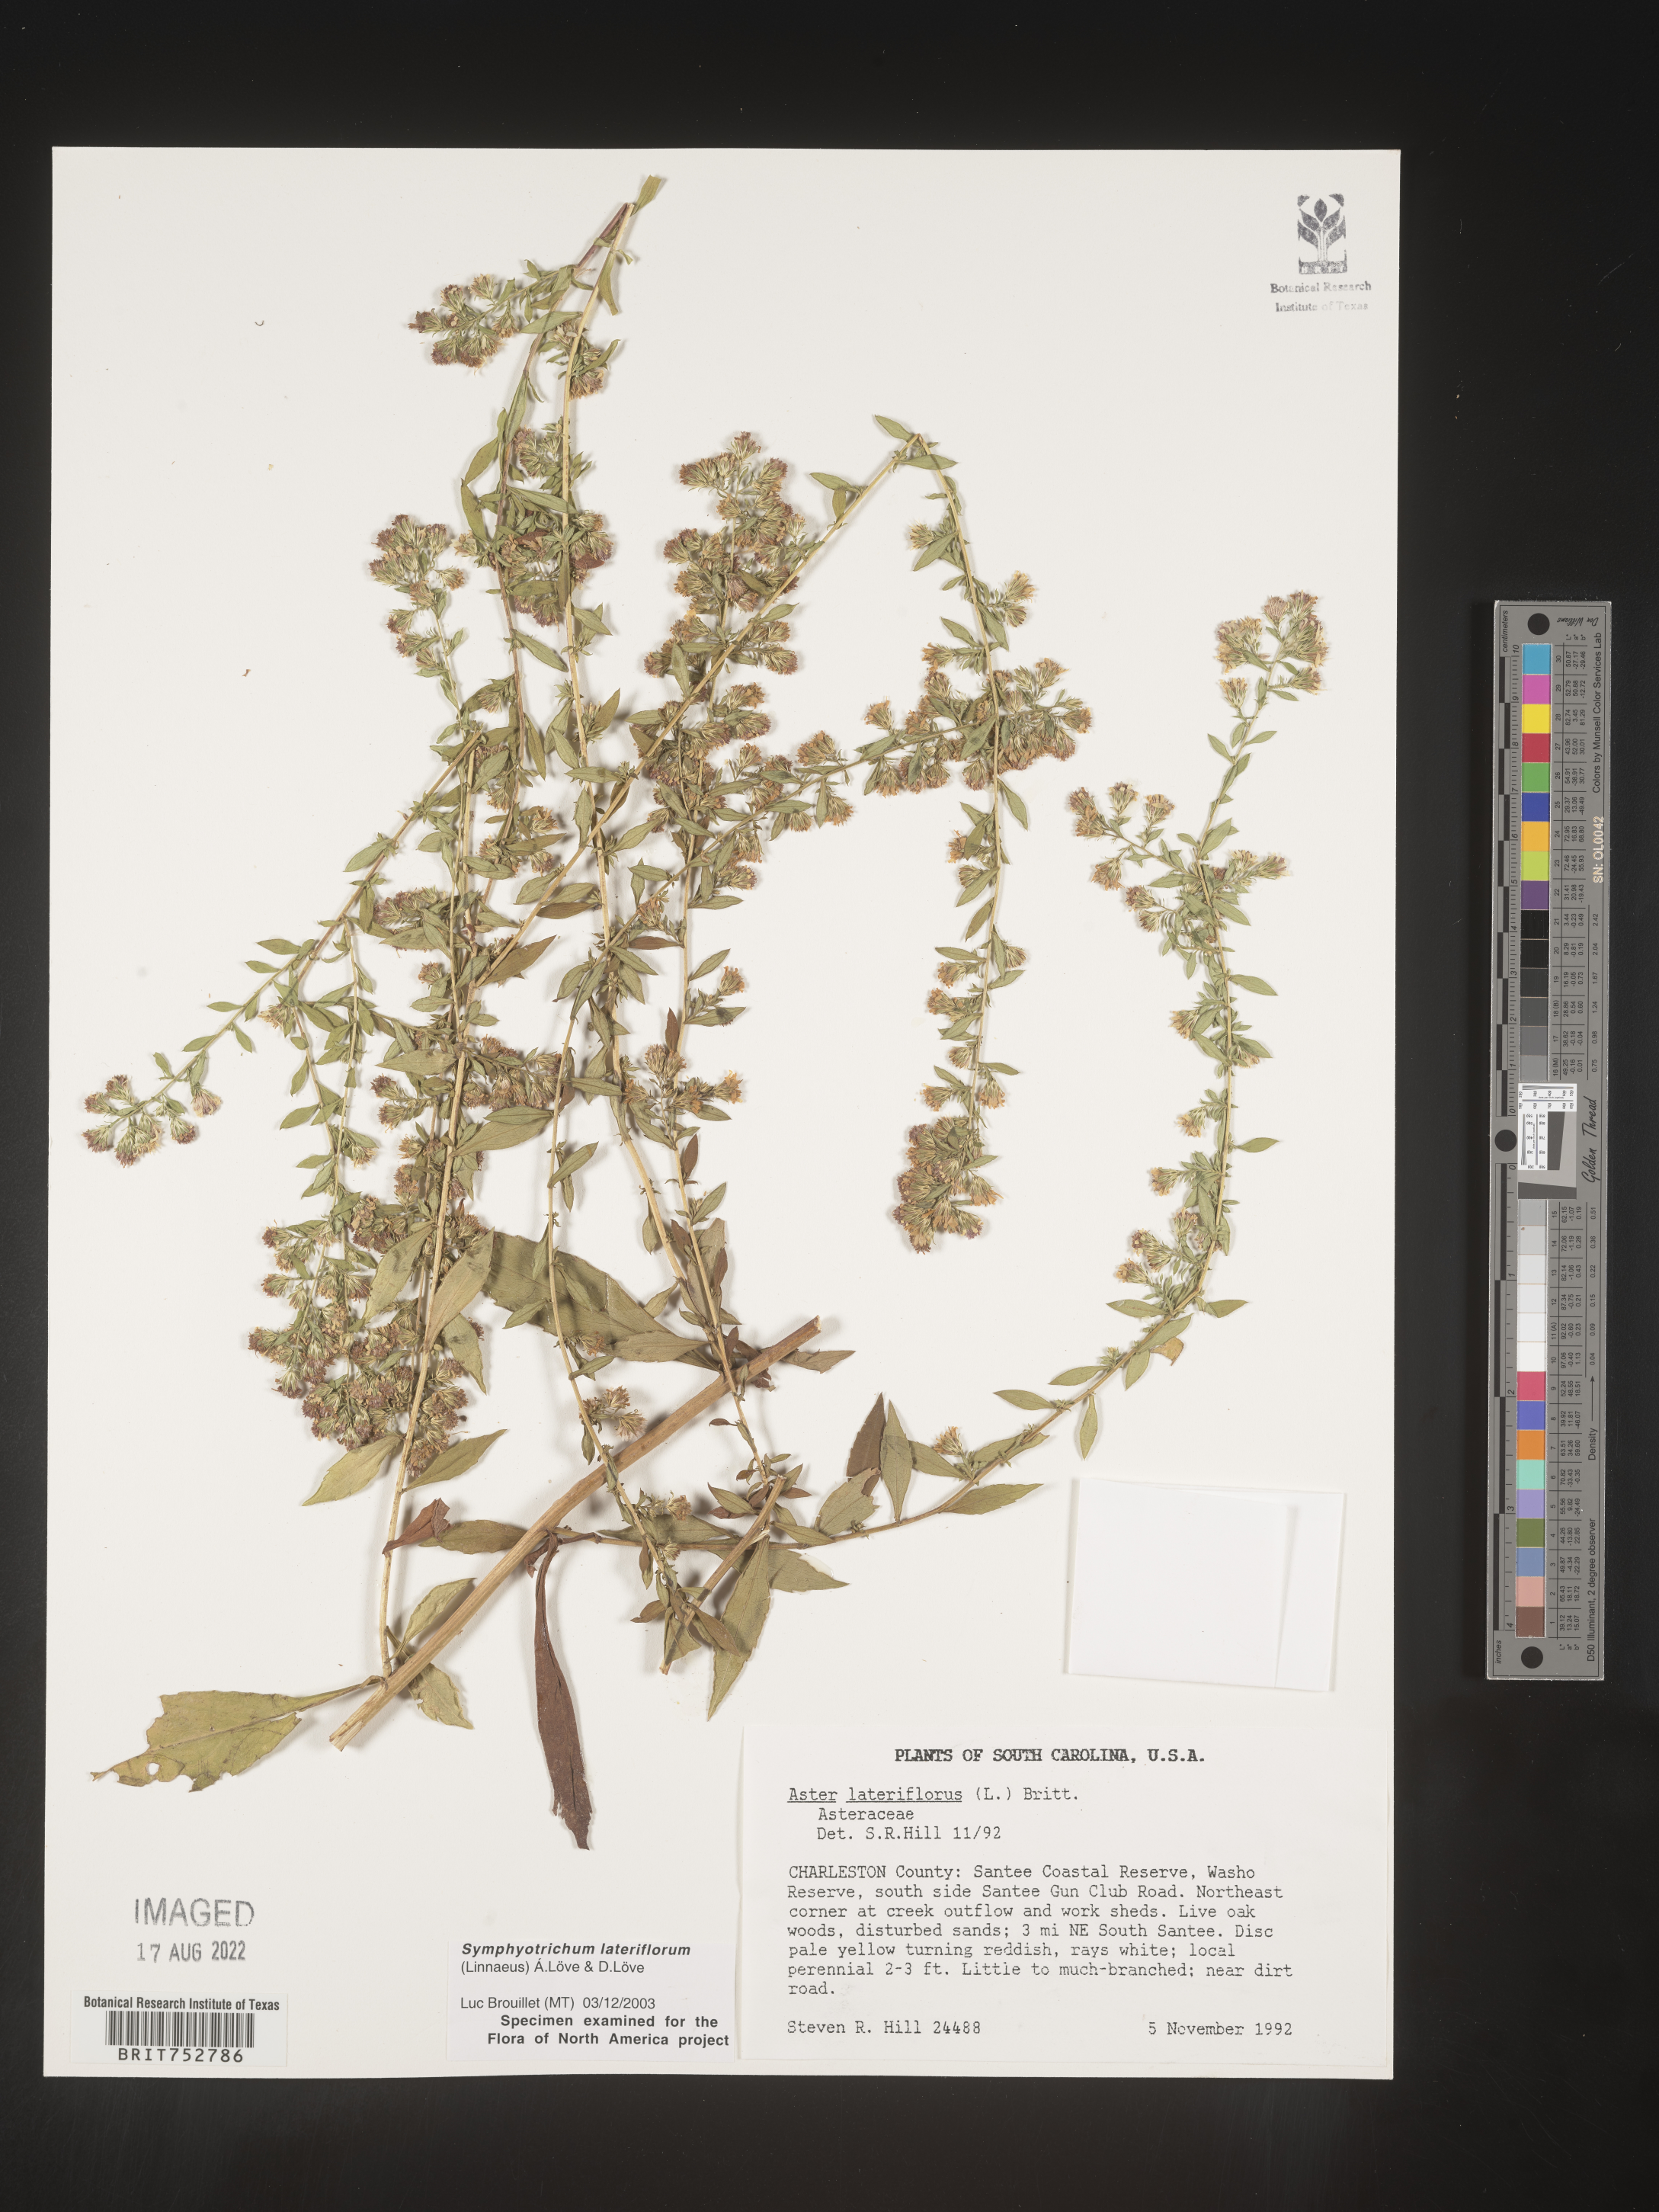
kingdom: Plantae
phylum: Tracheophyta
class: Magnoliopsida
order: Asterales
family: Asteraceae
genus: Symphyotrichum
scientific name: Symphyotrichum lateriflorum
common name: Calico aster
